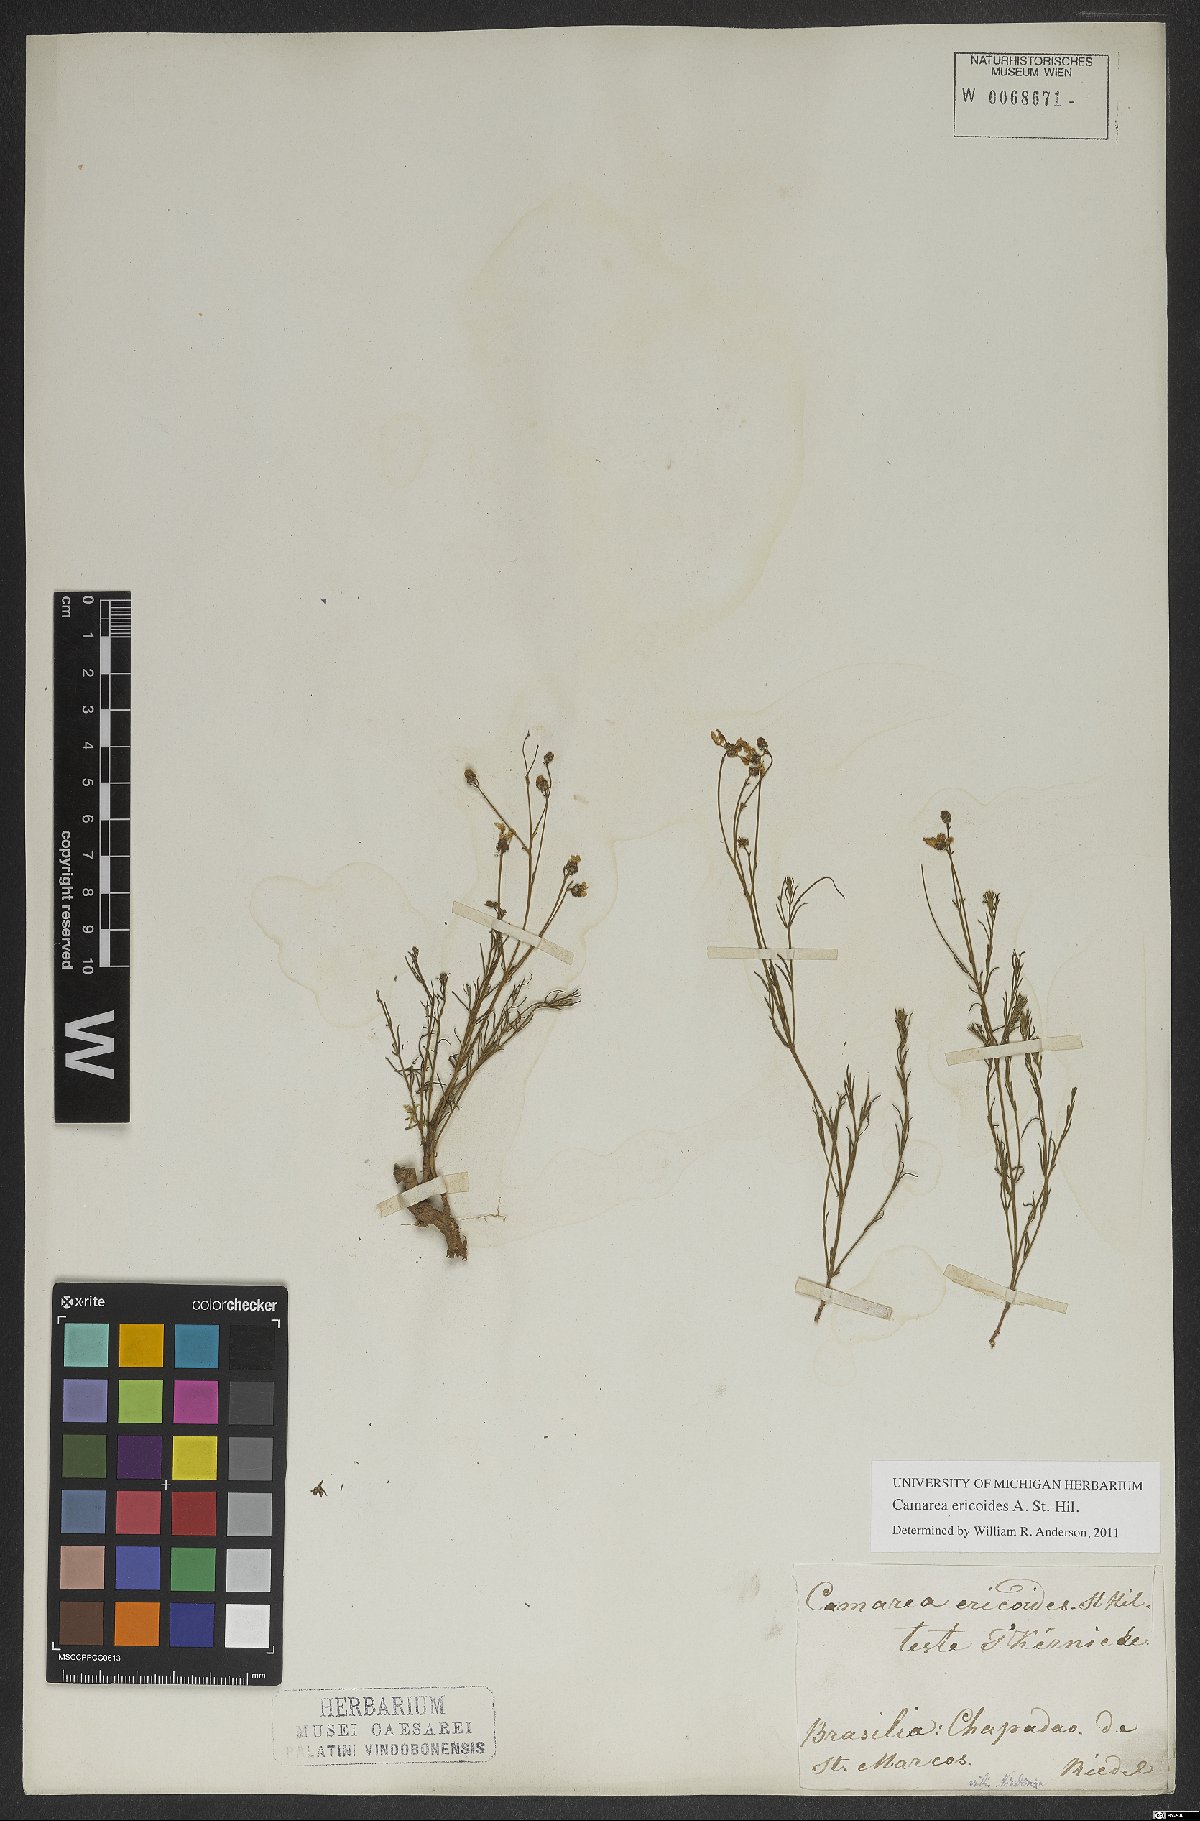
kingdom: Plantae
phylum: Tracheophyta
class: Magnoliopsida
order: Malpighiales
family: Malpighiaceae
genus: Camarea
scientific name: Camarea ericoides
